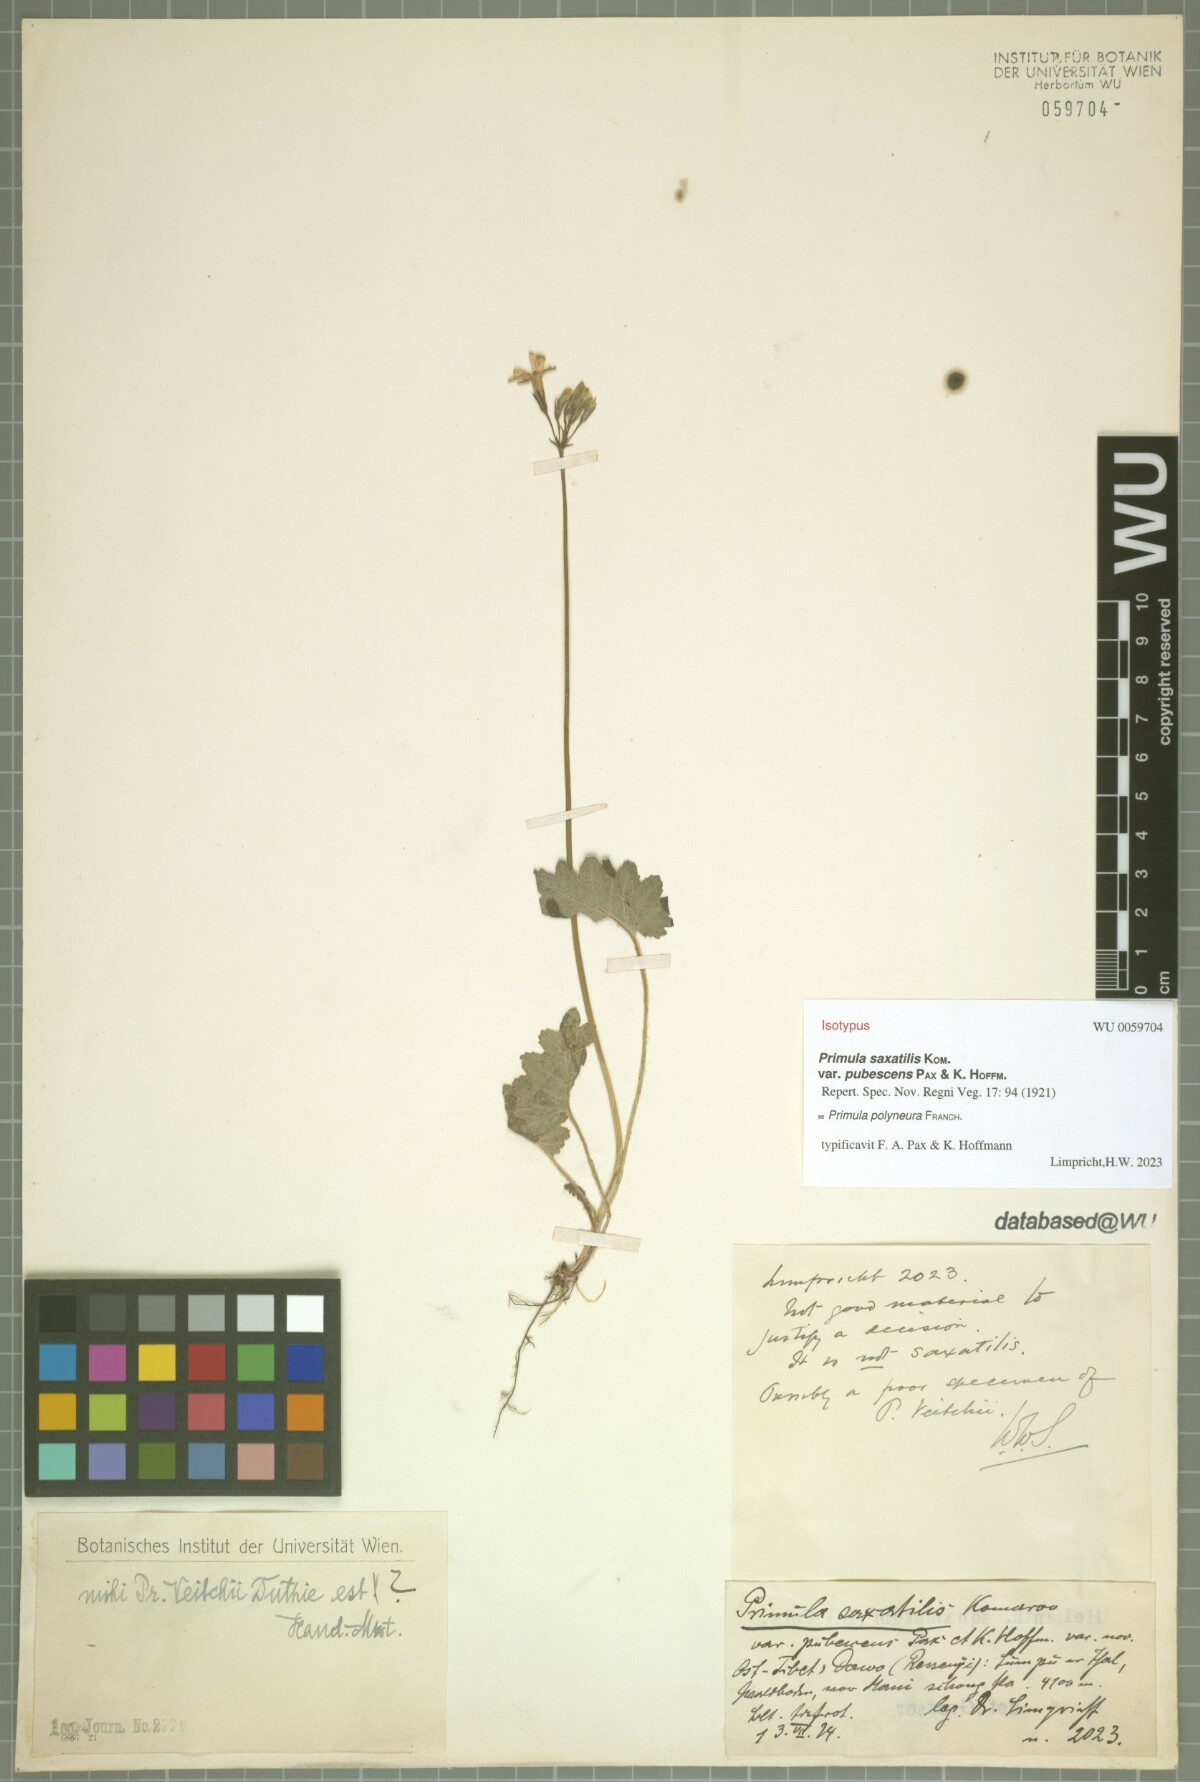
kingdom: Plantae
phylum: Tracheophyta
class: Magnoliopsida
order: Ericales
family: Primulaceae
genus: Primula
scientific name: Primula polyneura
